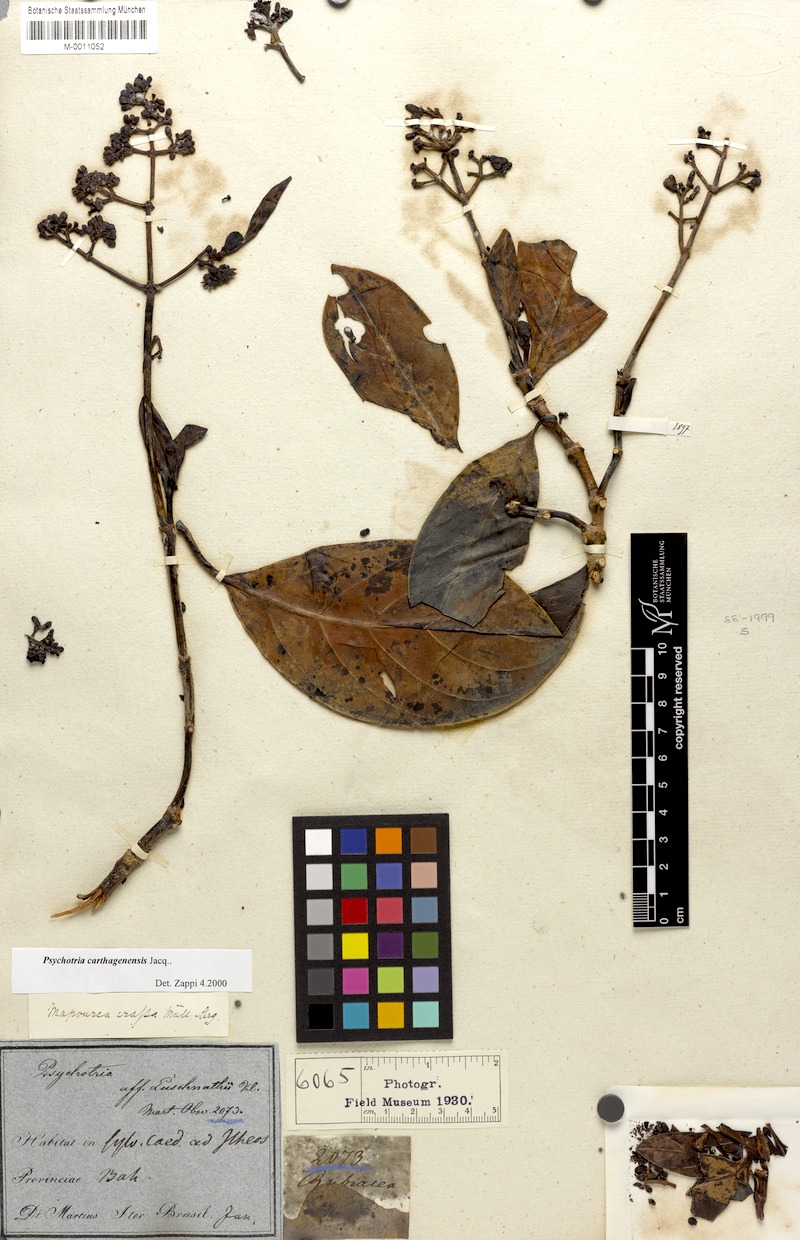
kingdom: Plantae
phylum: Tracheophyta
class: Magnoliopsida
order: Gentianales
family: Rubiaceae
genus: Psychotria
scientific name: Psychotria carthagenensis
